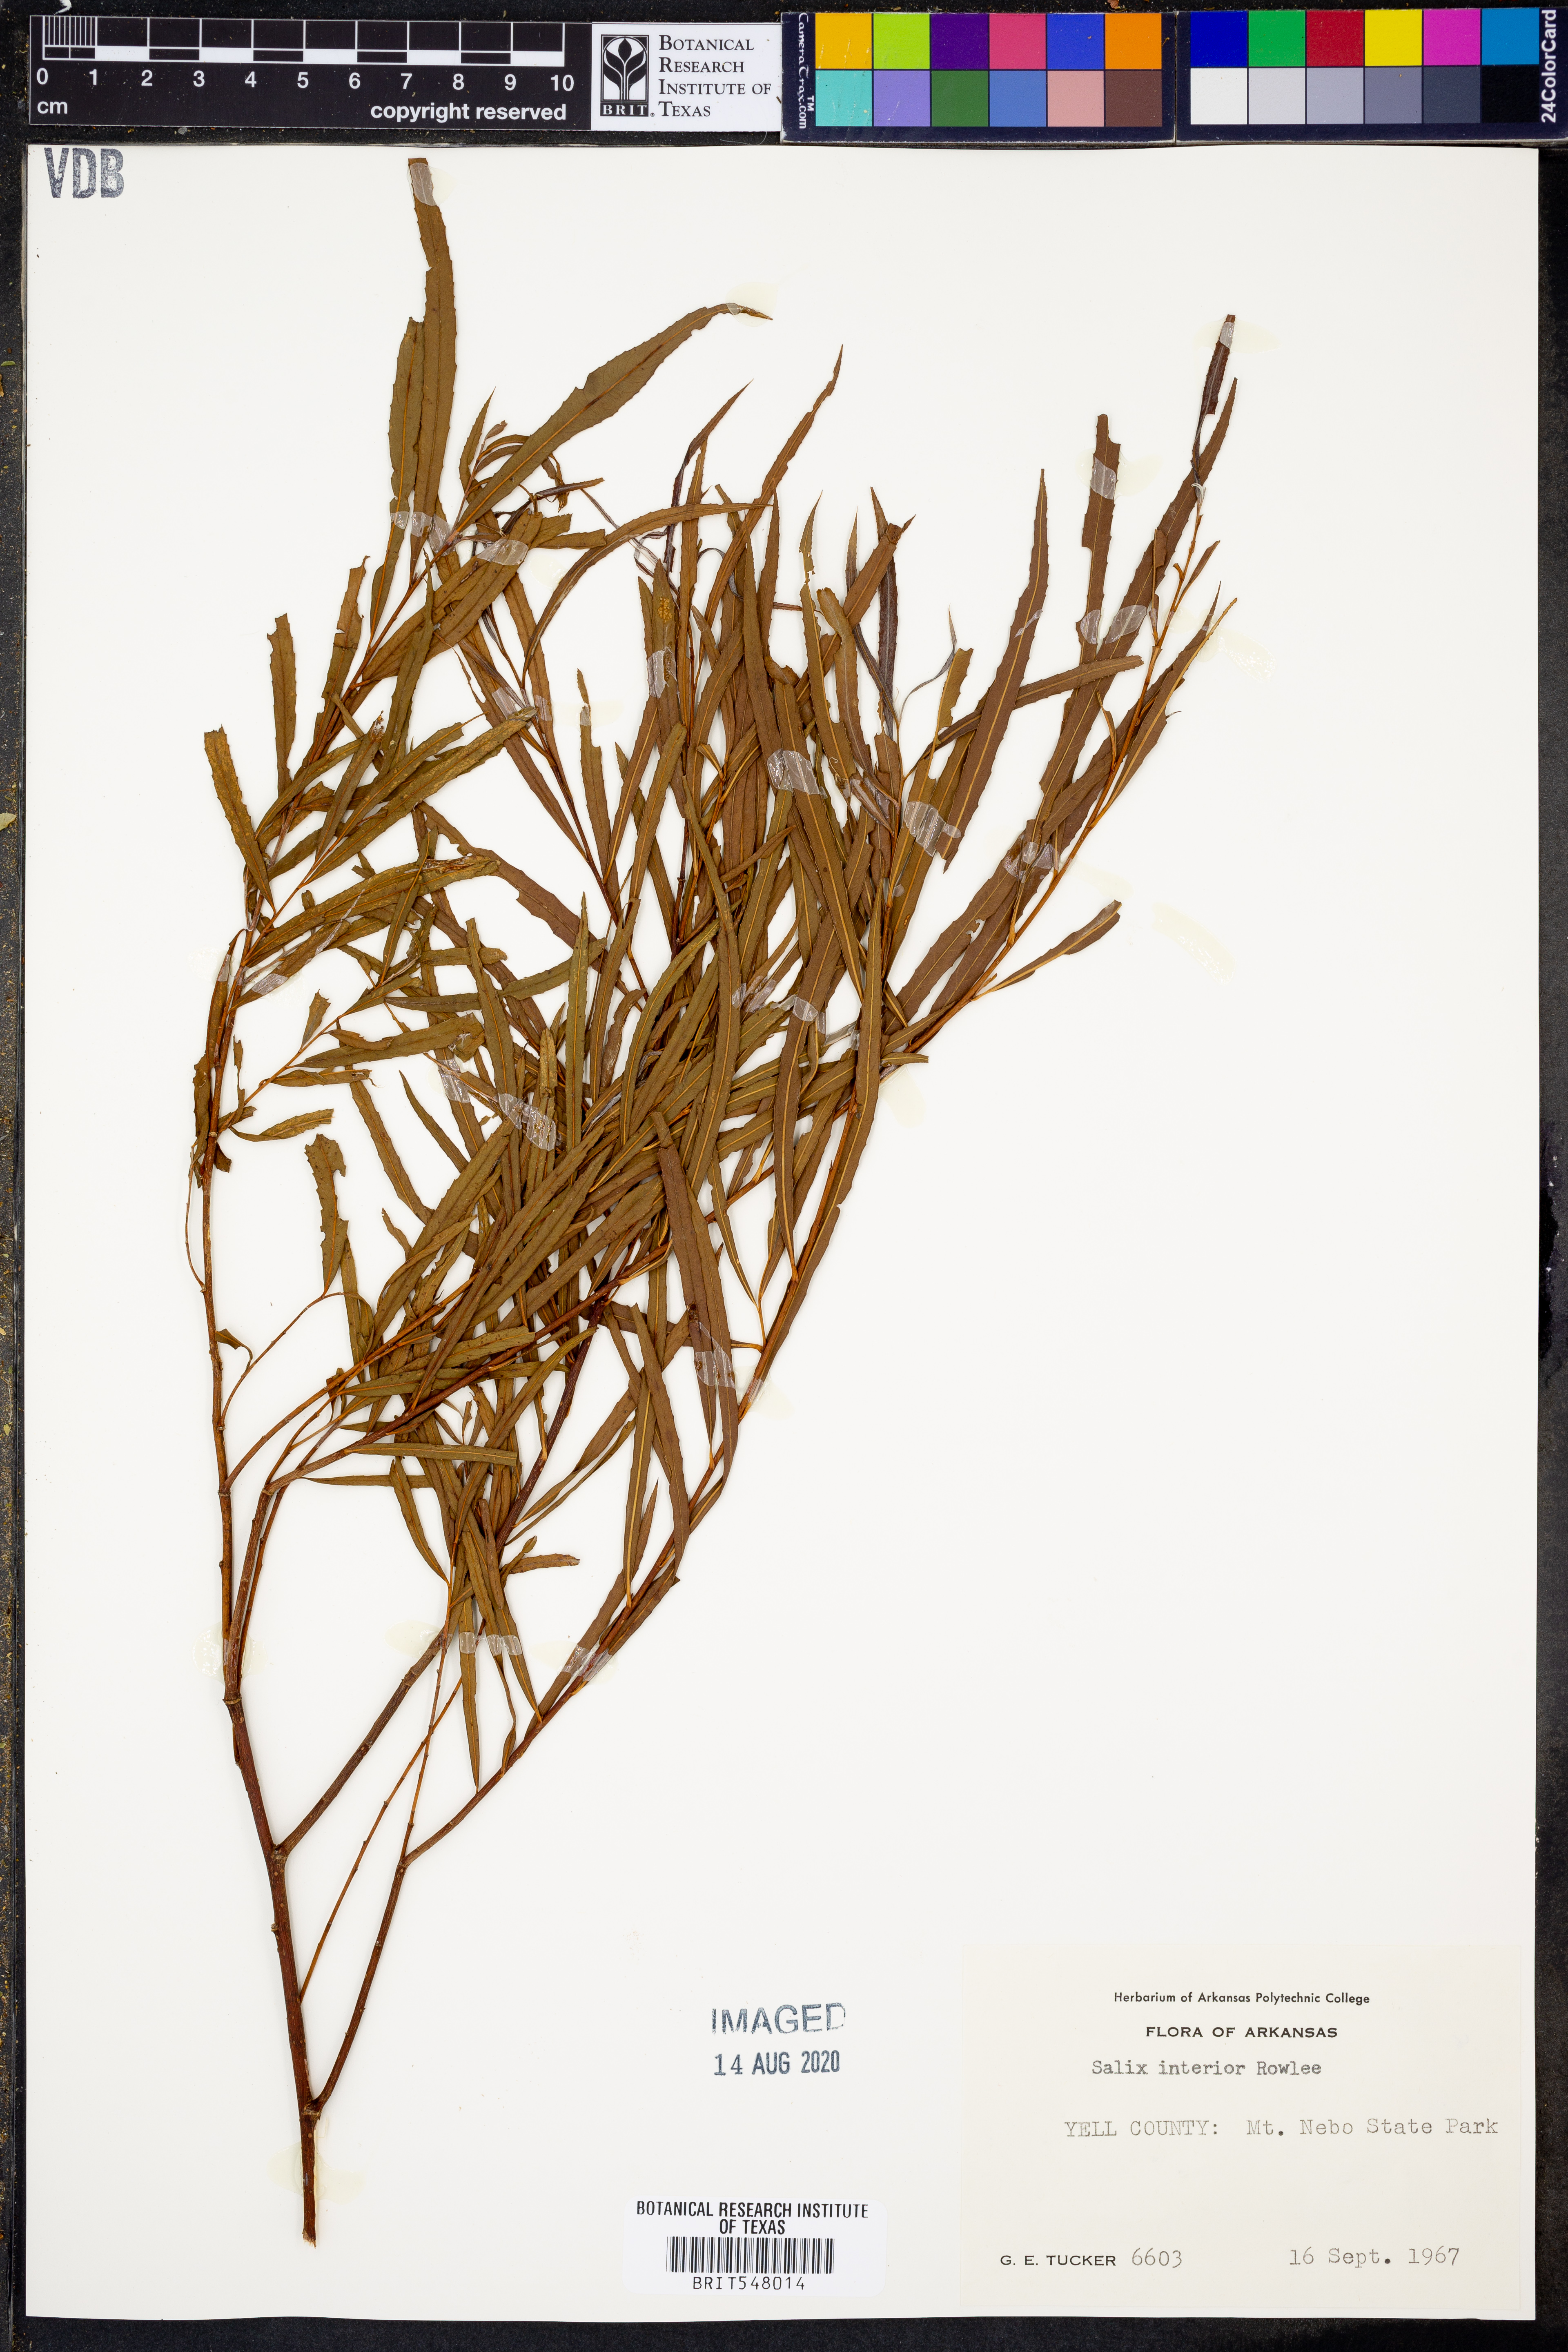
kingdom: Plantae
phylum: Tracheophyta
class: Magnoliopsida
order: Malpighiales
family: Salicaceae
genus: Salix
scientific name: Salix interior
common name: Sandbar willow
